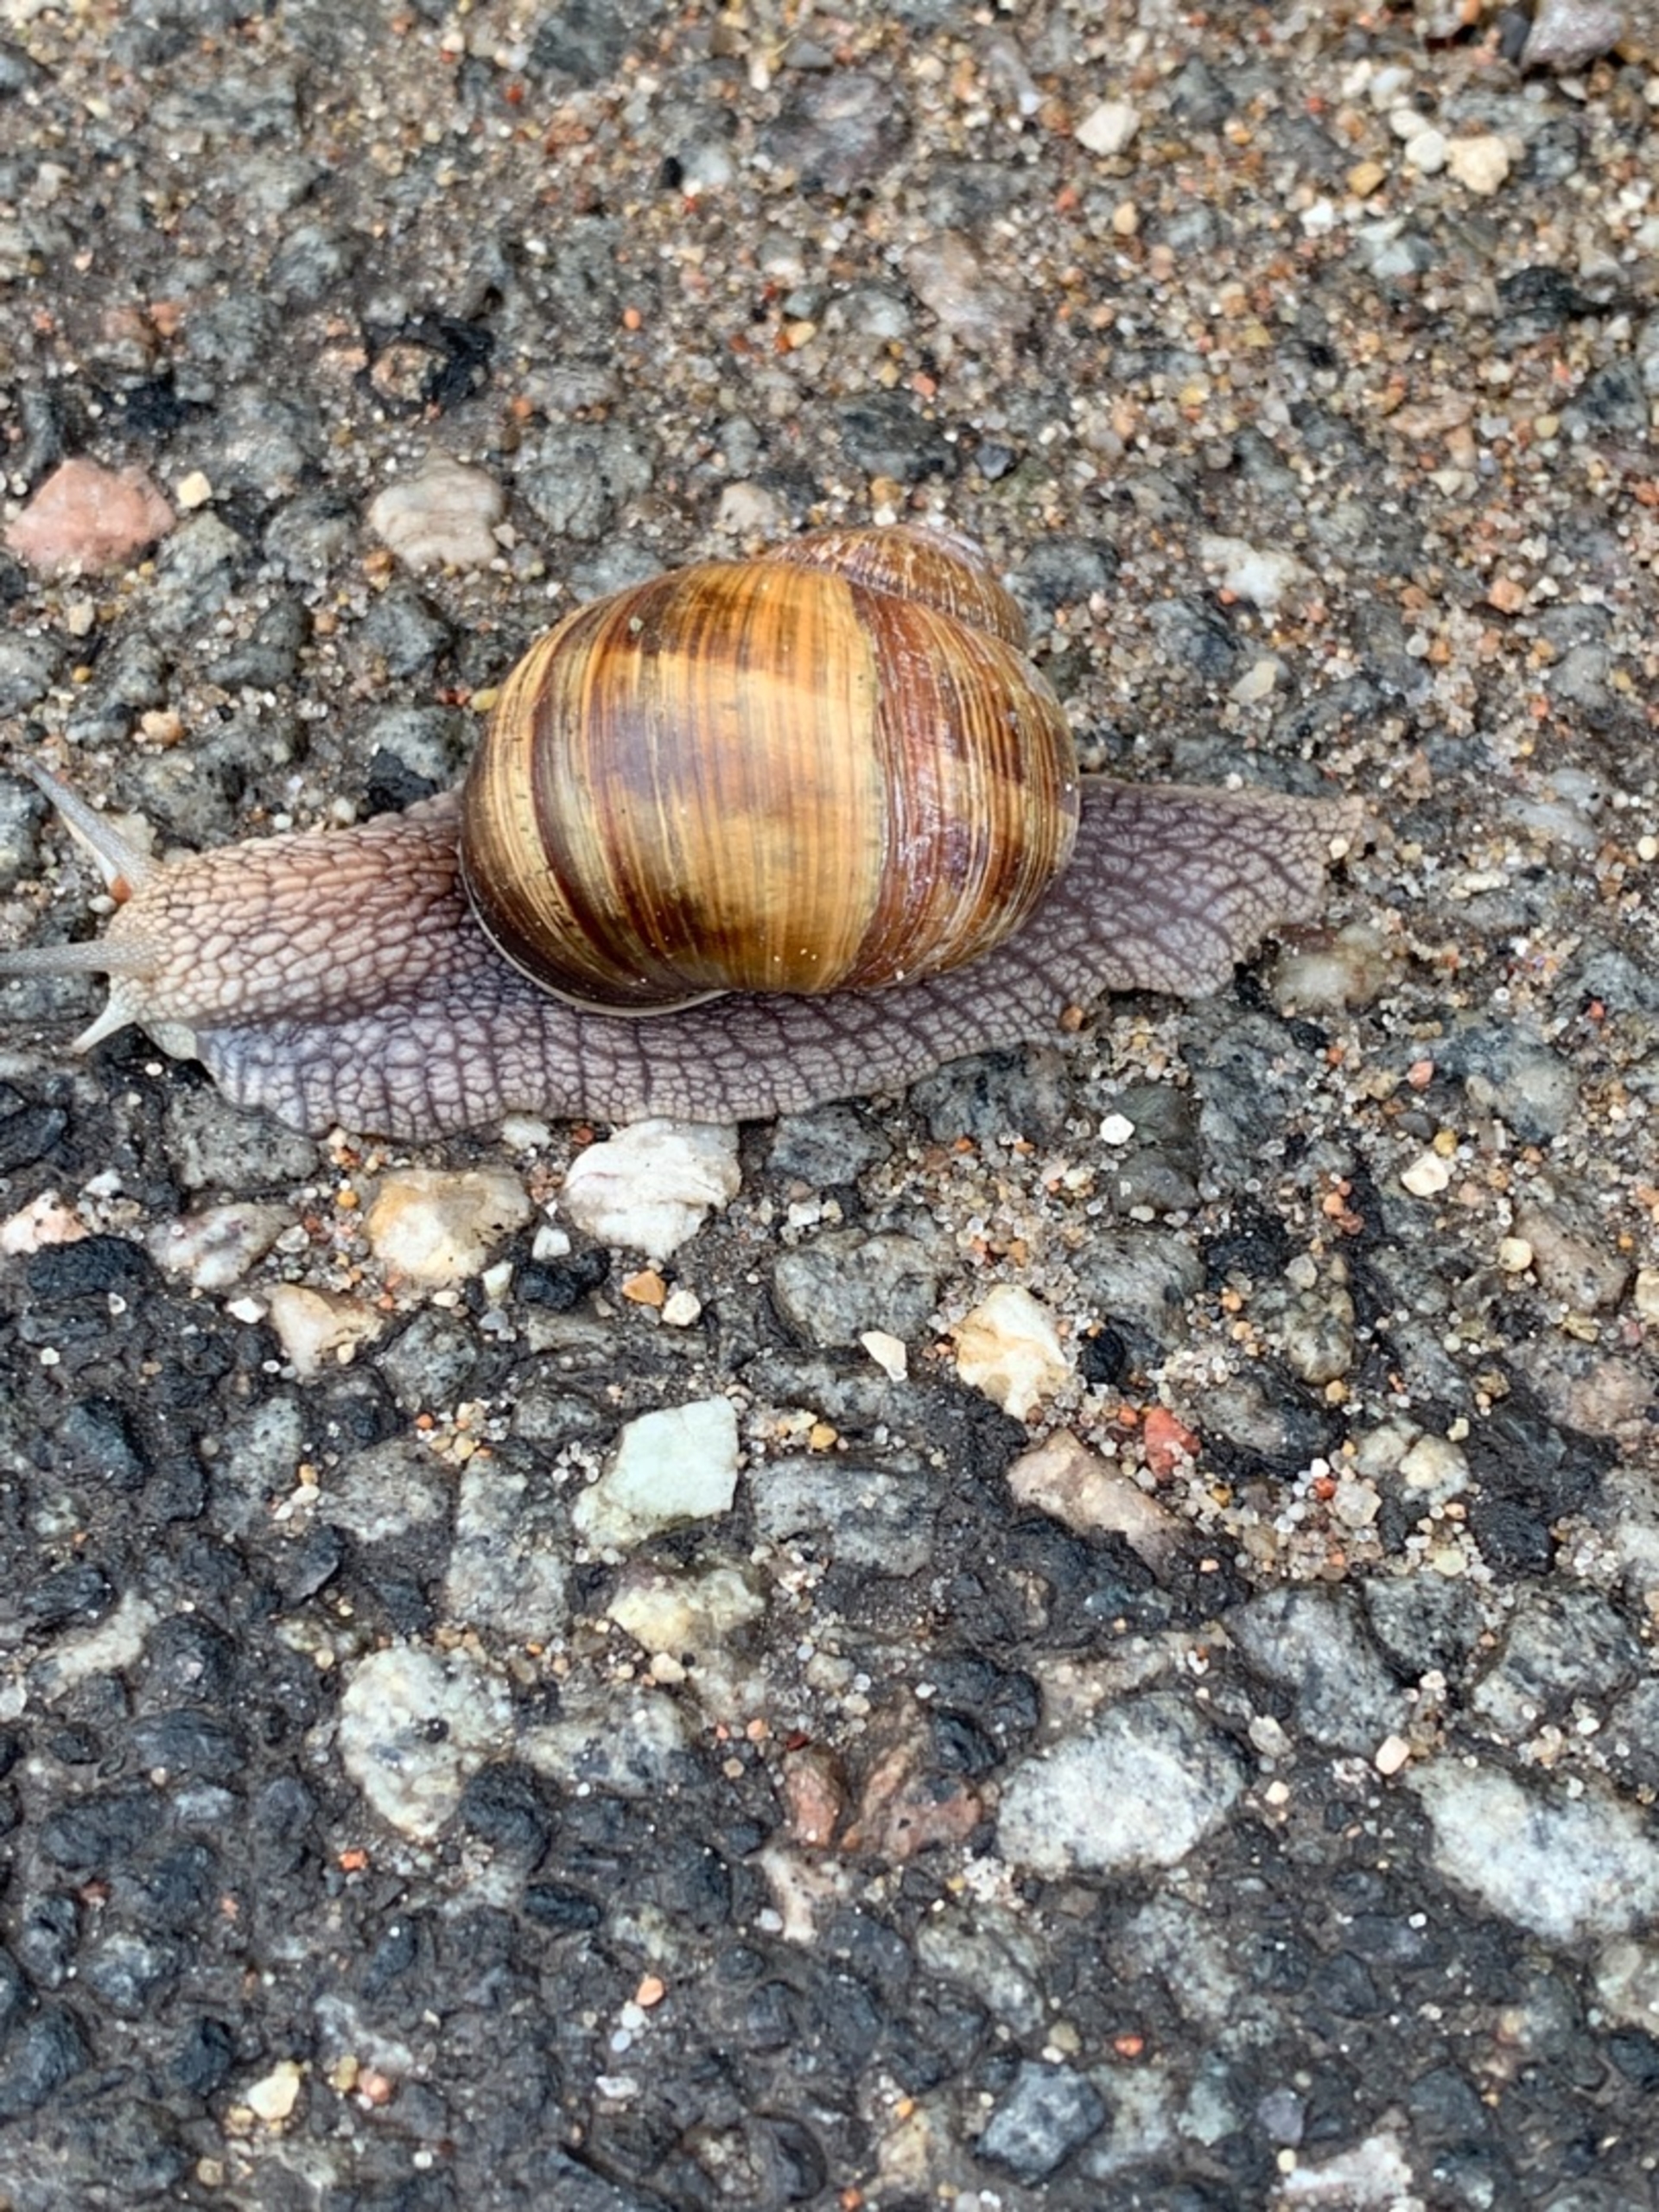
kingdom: Animalia
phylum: Mollusca
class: Gastropoda
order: Stylommatophora
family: Helicidae
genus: Helix
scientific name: Helix pomatia
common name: Vinbjergsnegl
